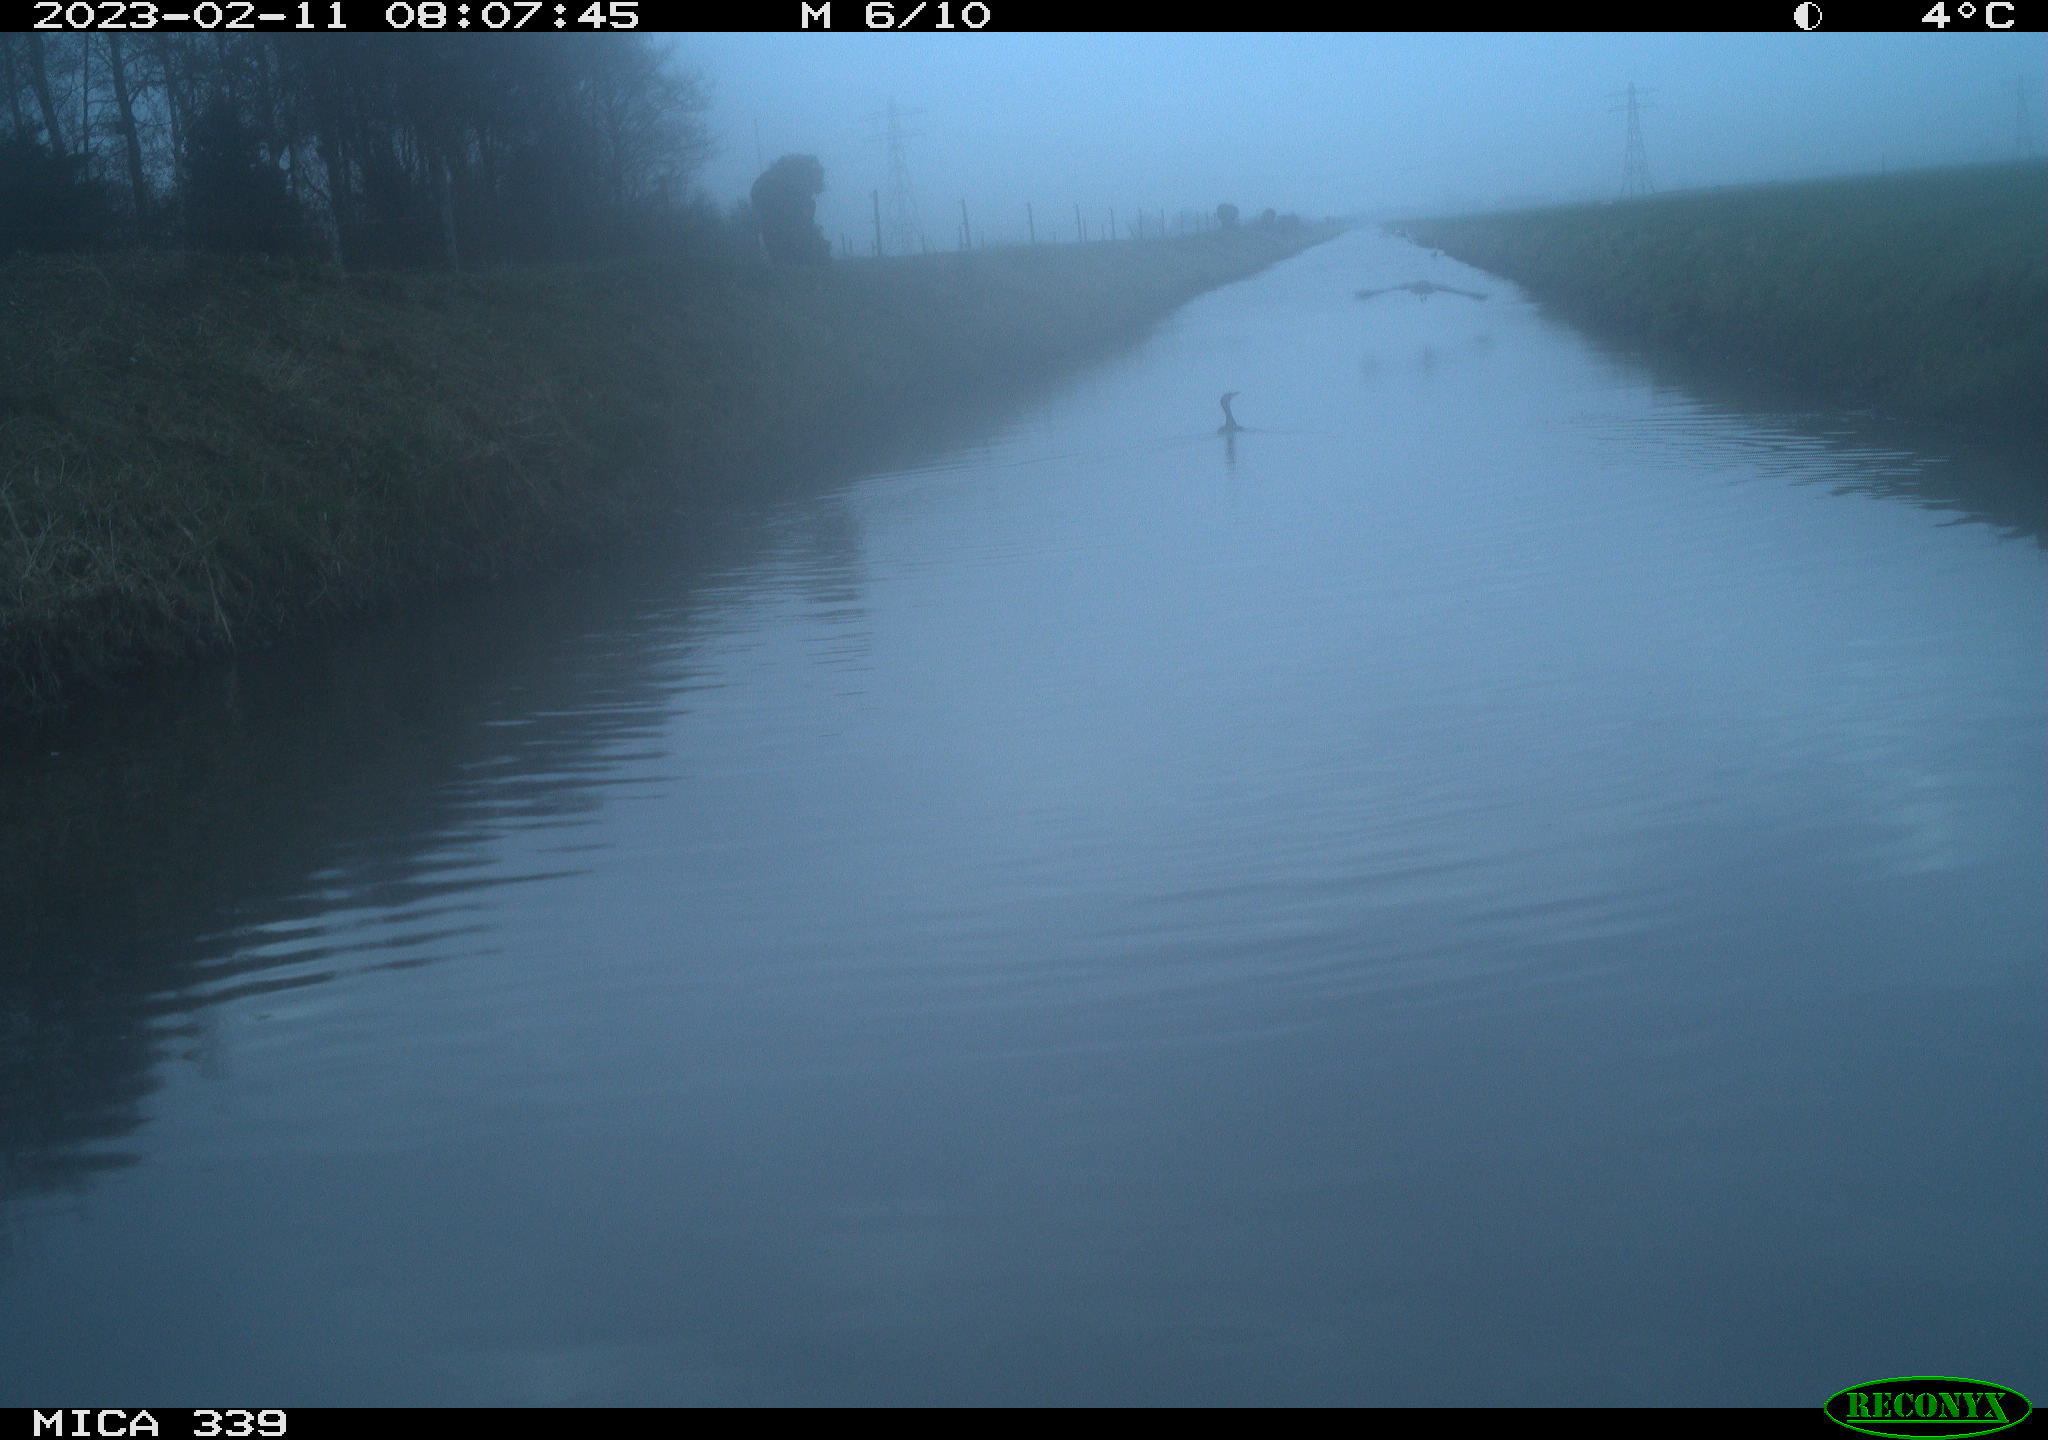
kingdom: Animalia
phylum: Chordata
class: Aves
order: Pelecaniformes
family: Ardeidae
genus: Ardea
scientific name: Ardea cinerea
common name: Grey heron
